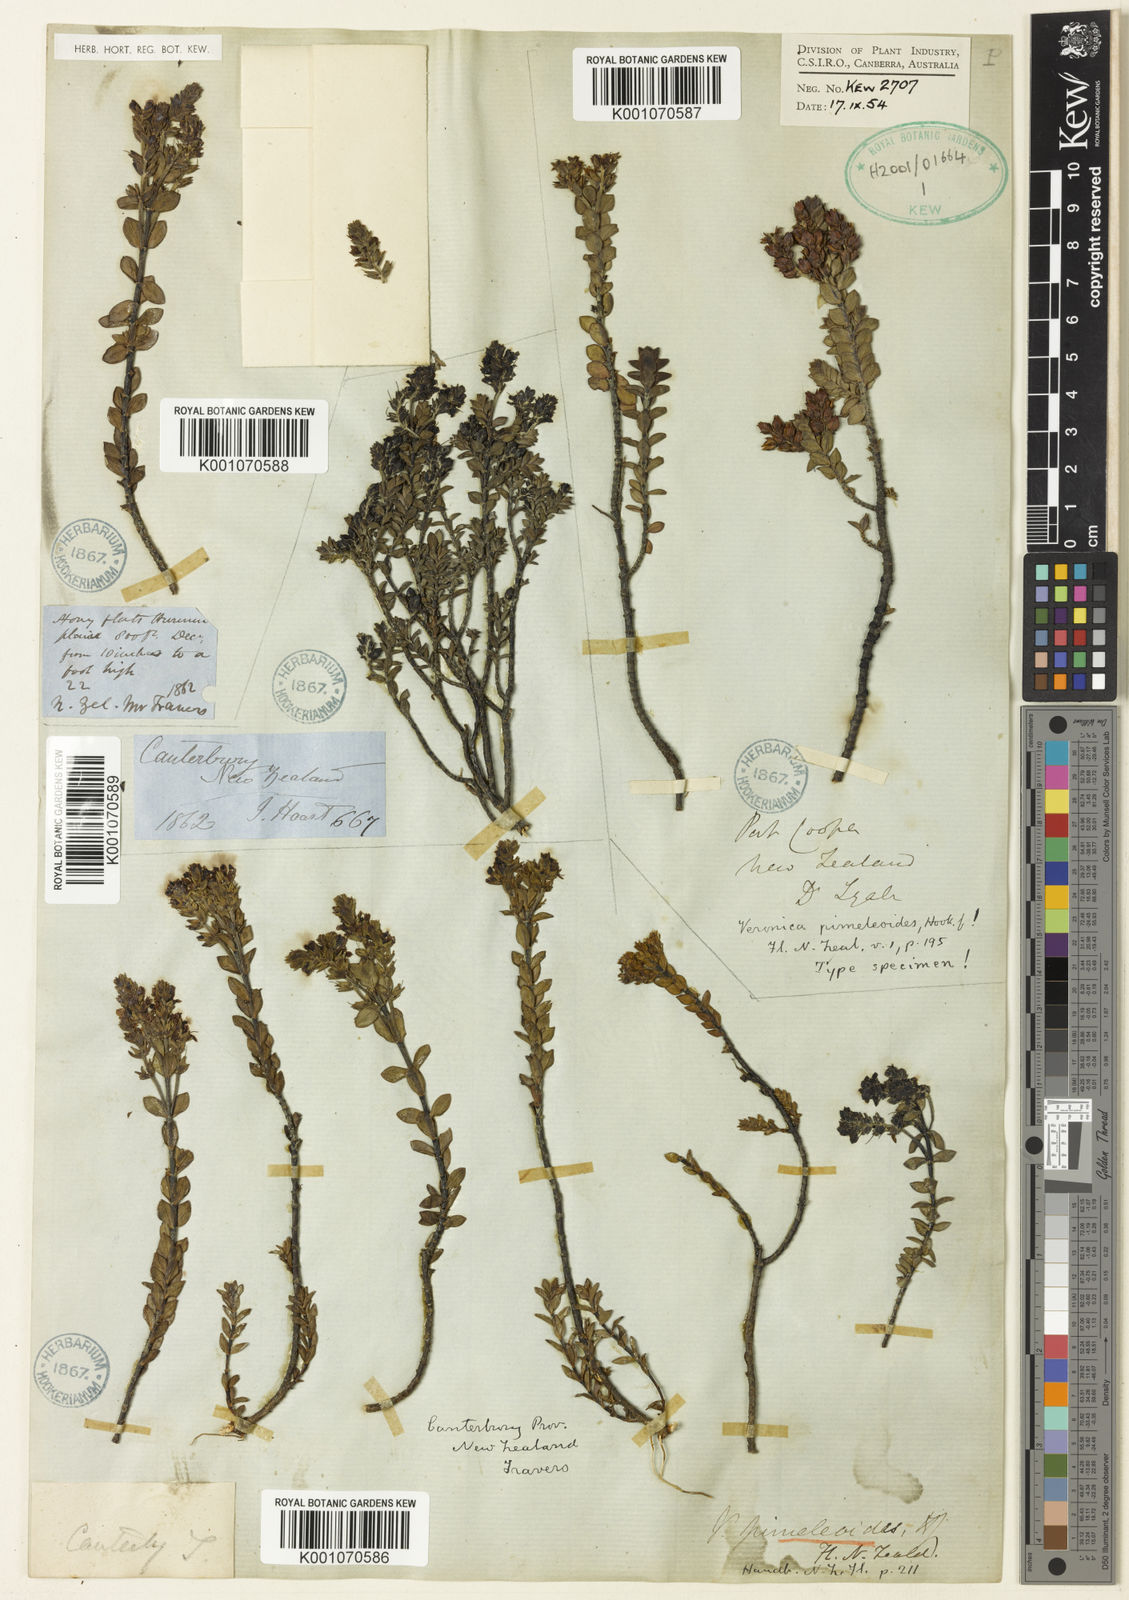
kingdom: Plantae
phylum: Tracheophyta
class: Magnoliopsida
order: Lamiales
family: Plantaginaceae
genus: Veronica
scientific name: Veronica pimeleoides
